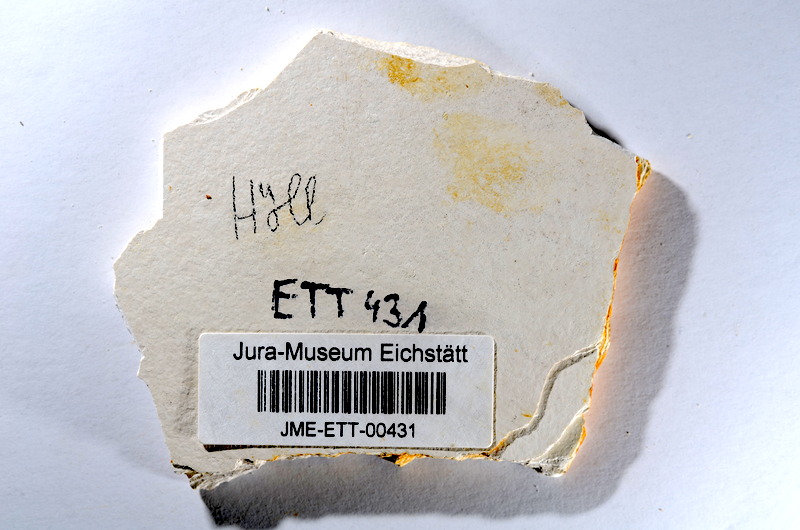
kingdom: Animalia
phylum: Chordata
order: Salmoniformes
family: Orthogonikleithridae
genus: Orthogonikleithrus
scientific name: Orthogonikleithrus hoelli
